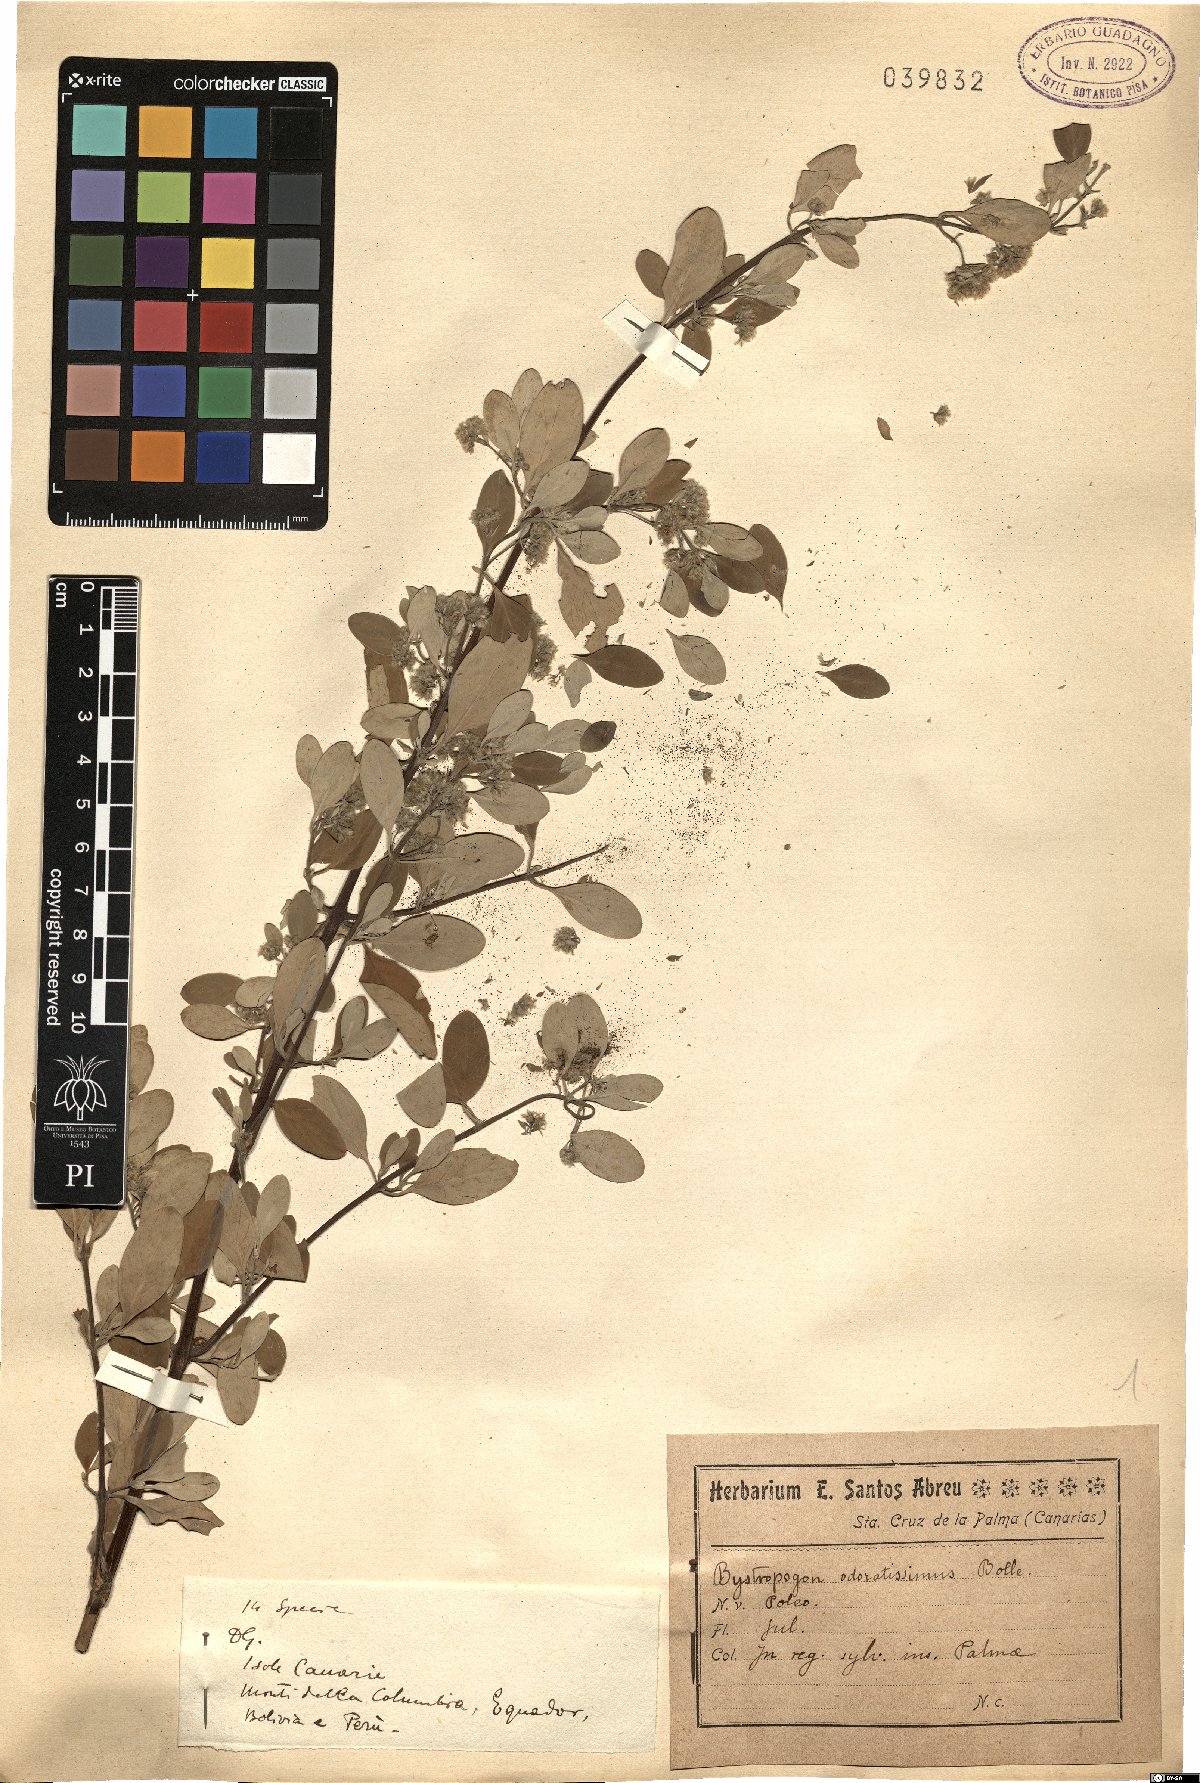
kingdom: Plantae
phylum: Tracheophyta
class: Magnoliopsida
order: Lamiales
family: Lamiaceae
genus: Bystropogon
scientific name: Bystropogon odoratissimus
